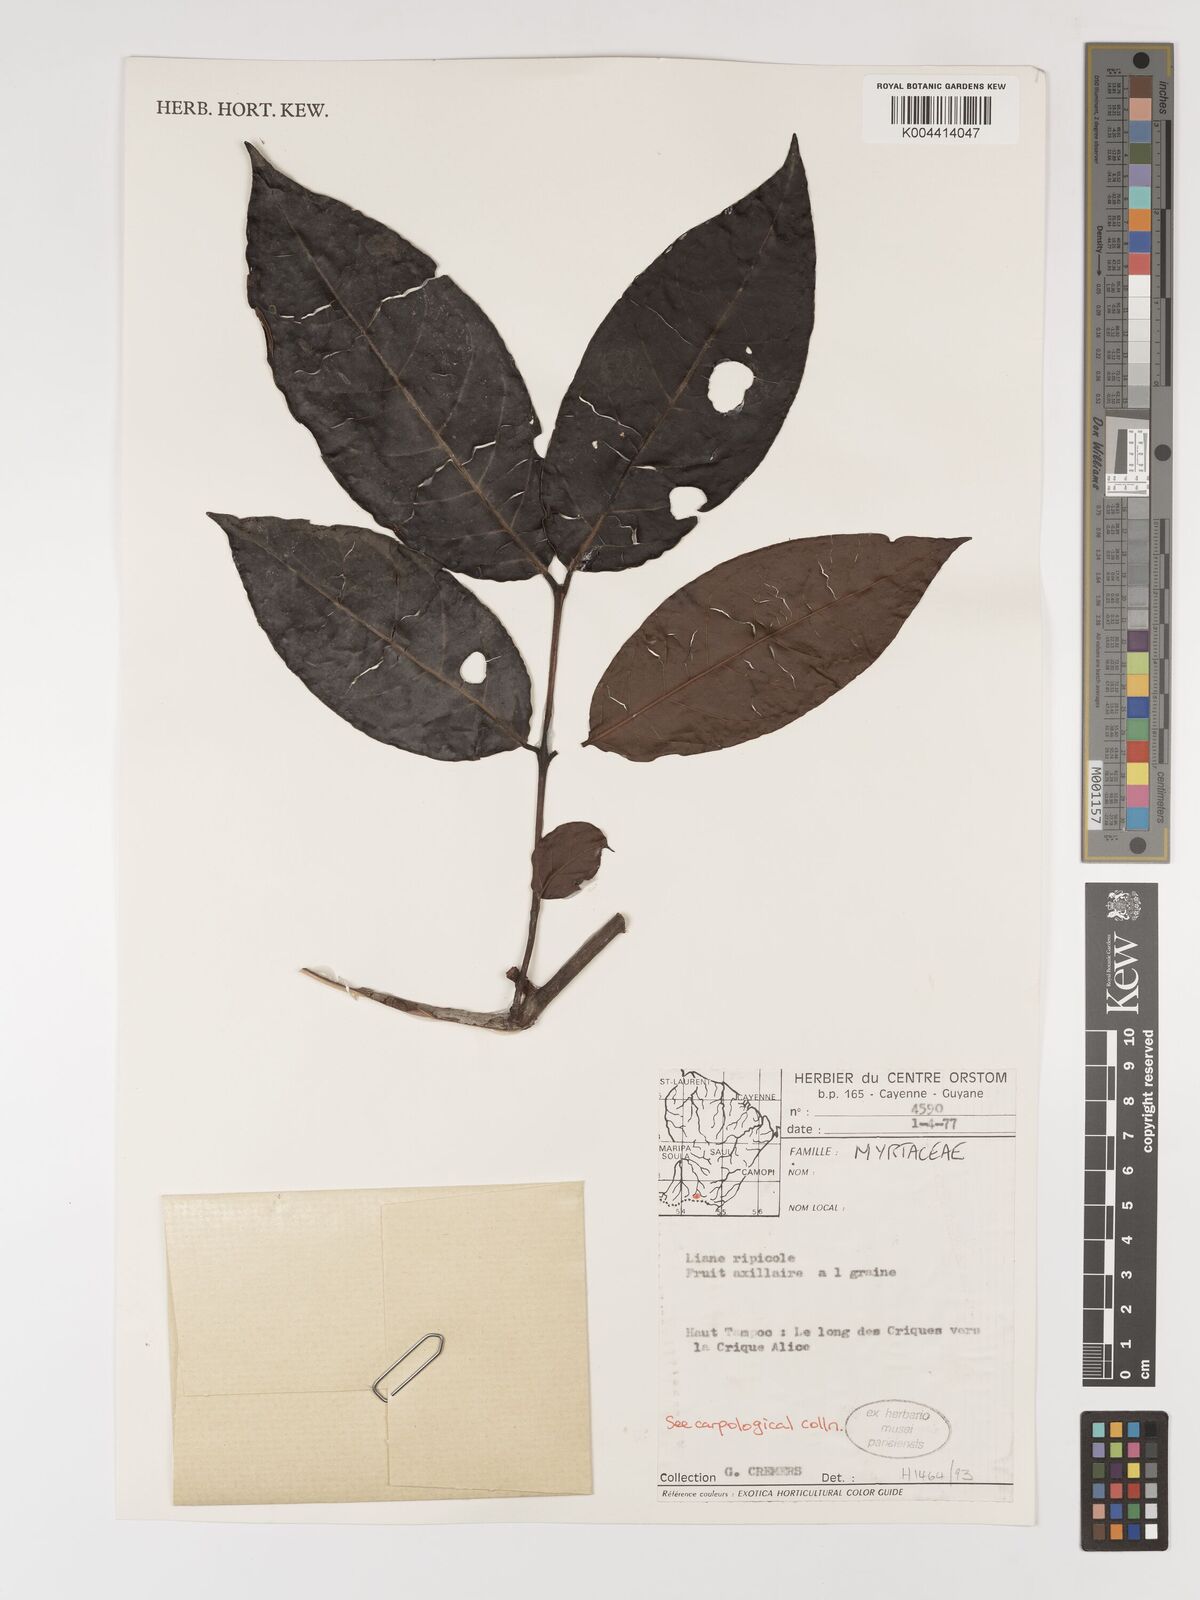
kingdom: Plantae
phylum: Tracheophyta
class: Magnoliopsida
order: Myrtales
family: Myrtaceae
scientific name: Myrtaceae
